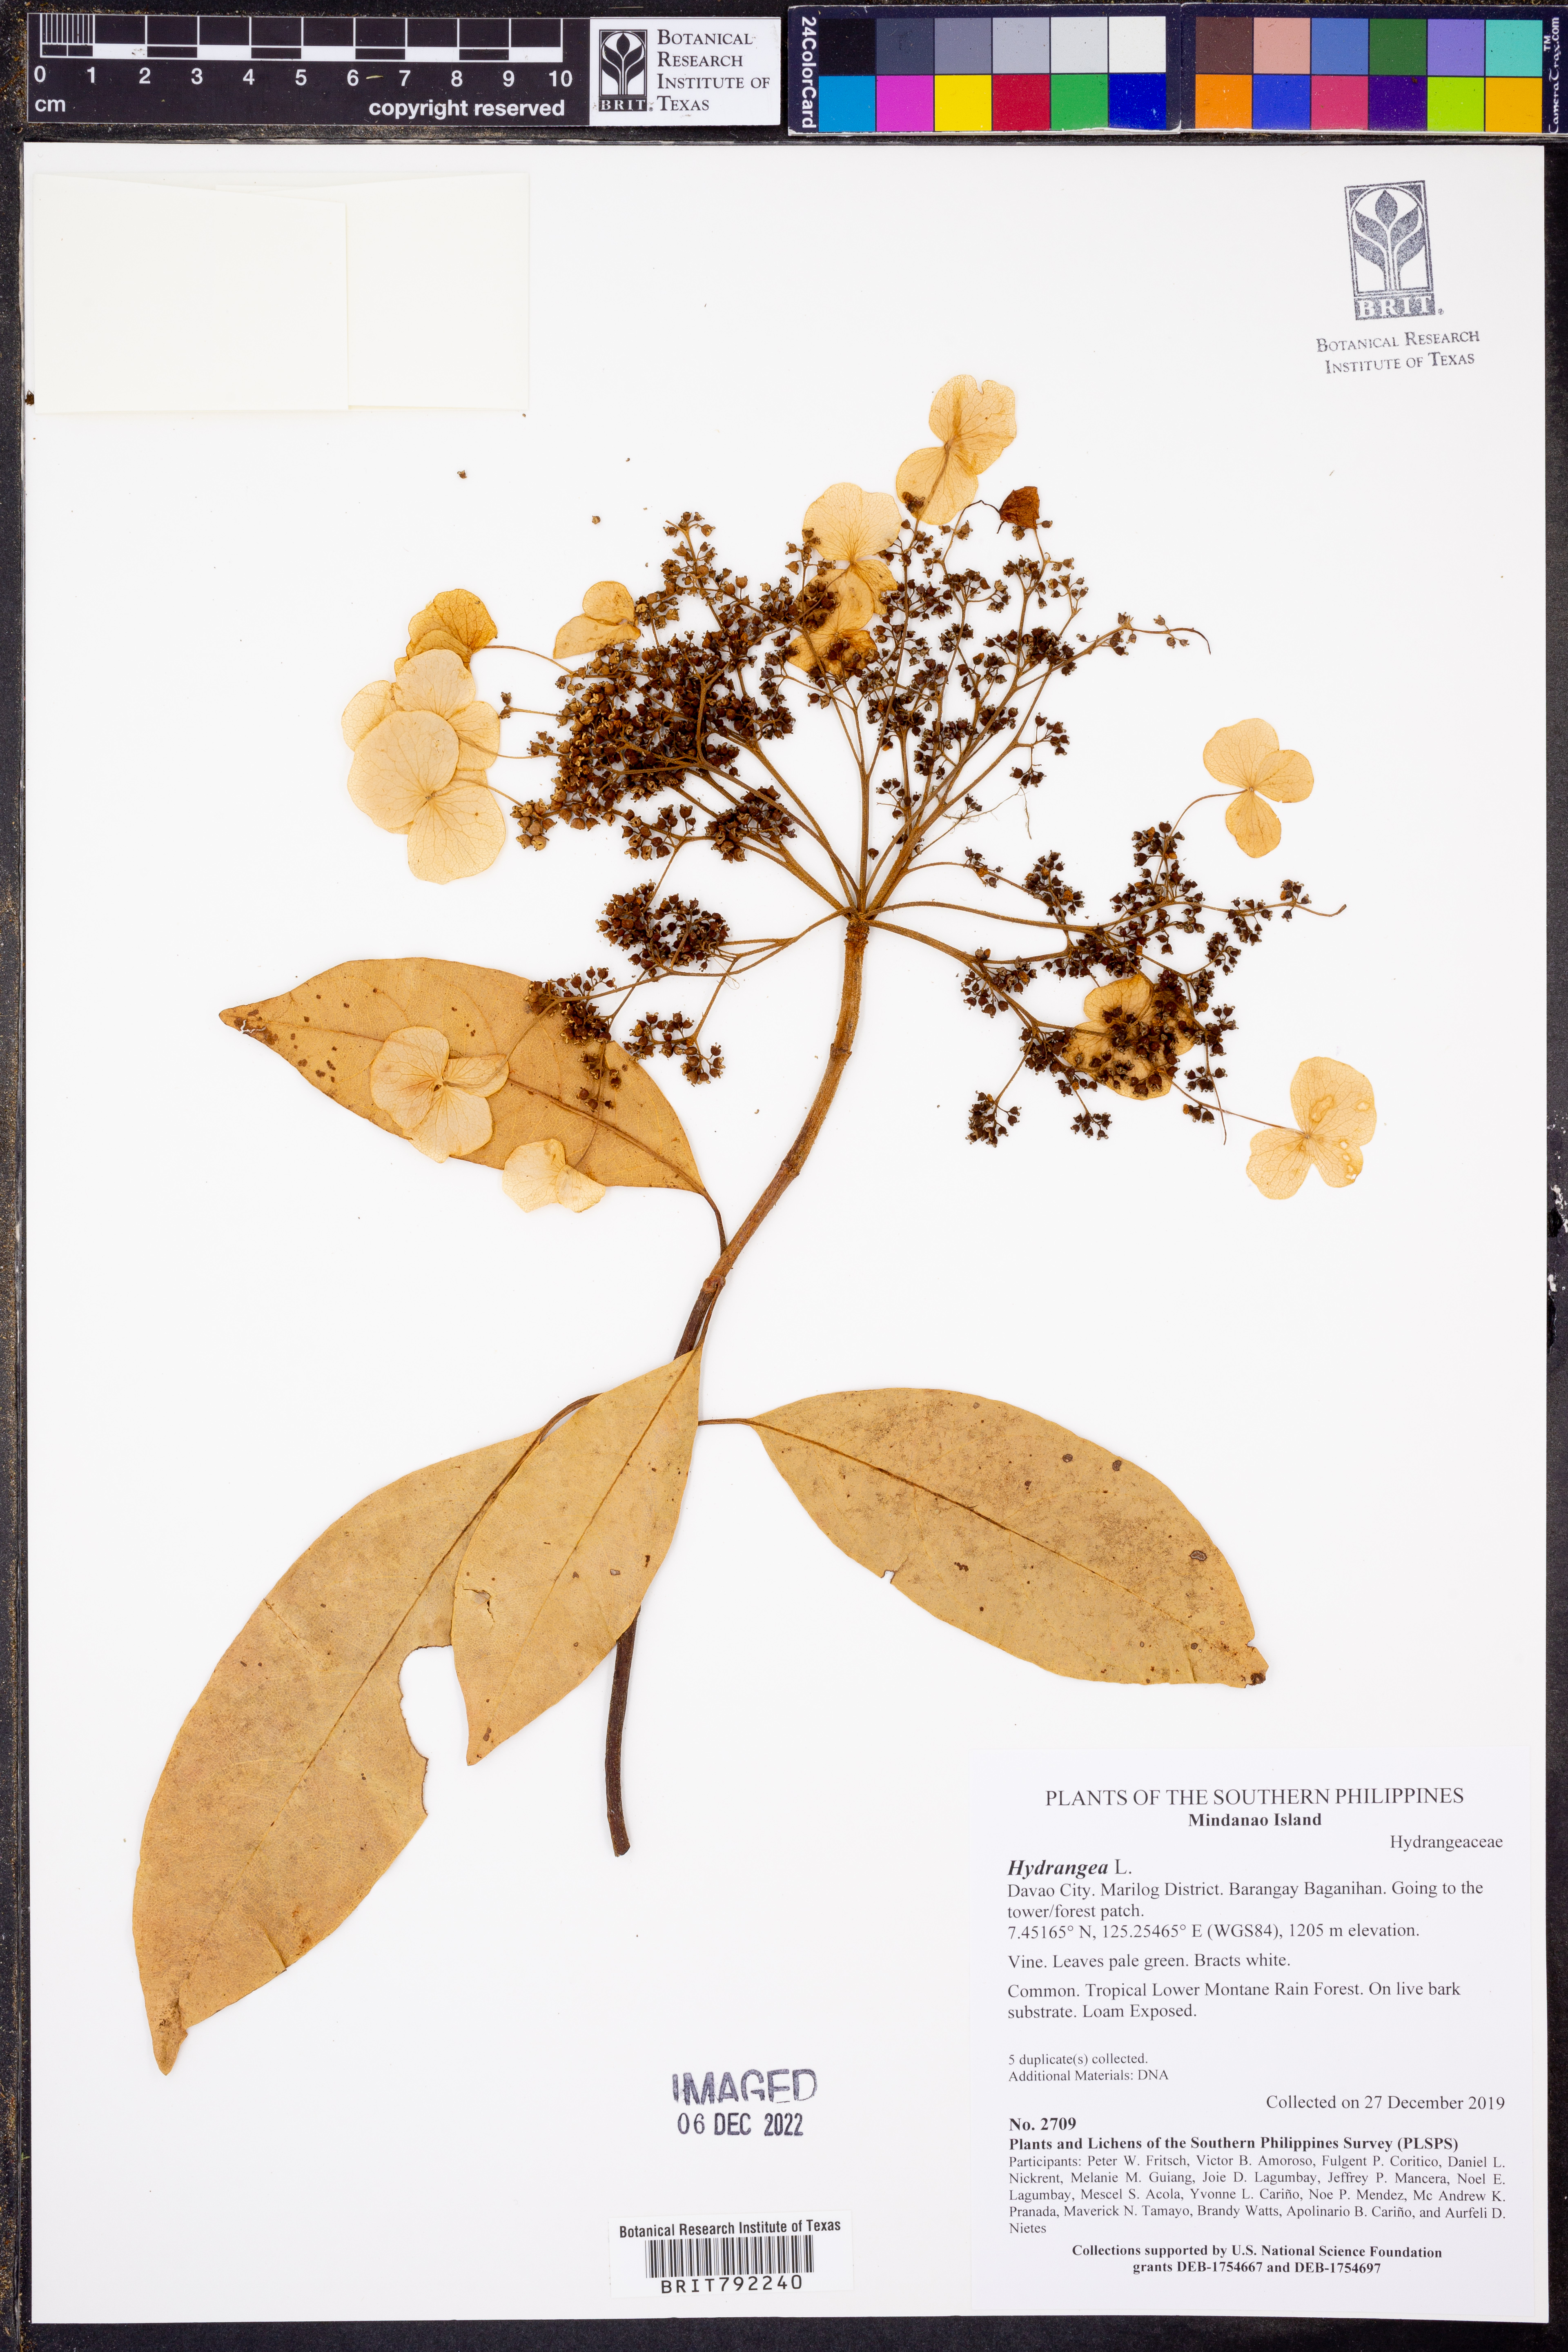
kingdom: Plantae
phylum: Tracheophyta
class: Magnoliopsida
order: Cornales
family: Hydrangeaceae
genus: Hydrangea
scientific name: Hydrangea
